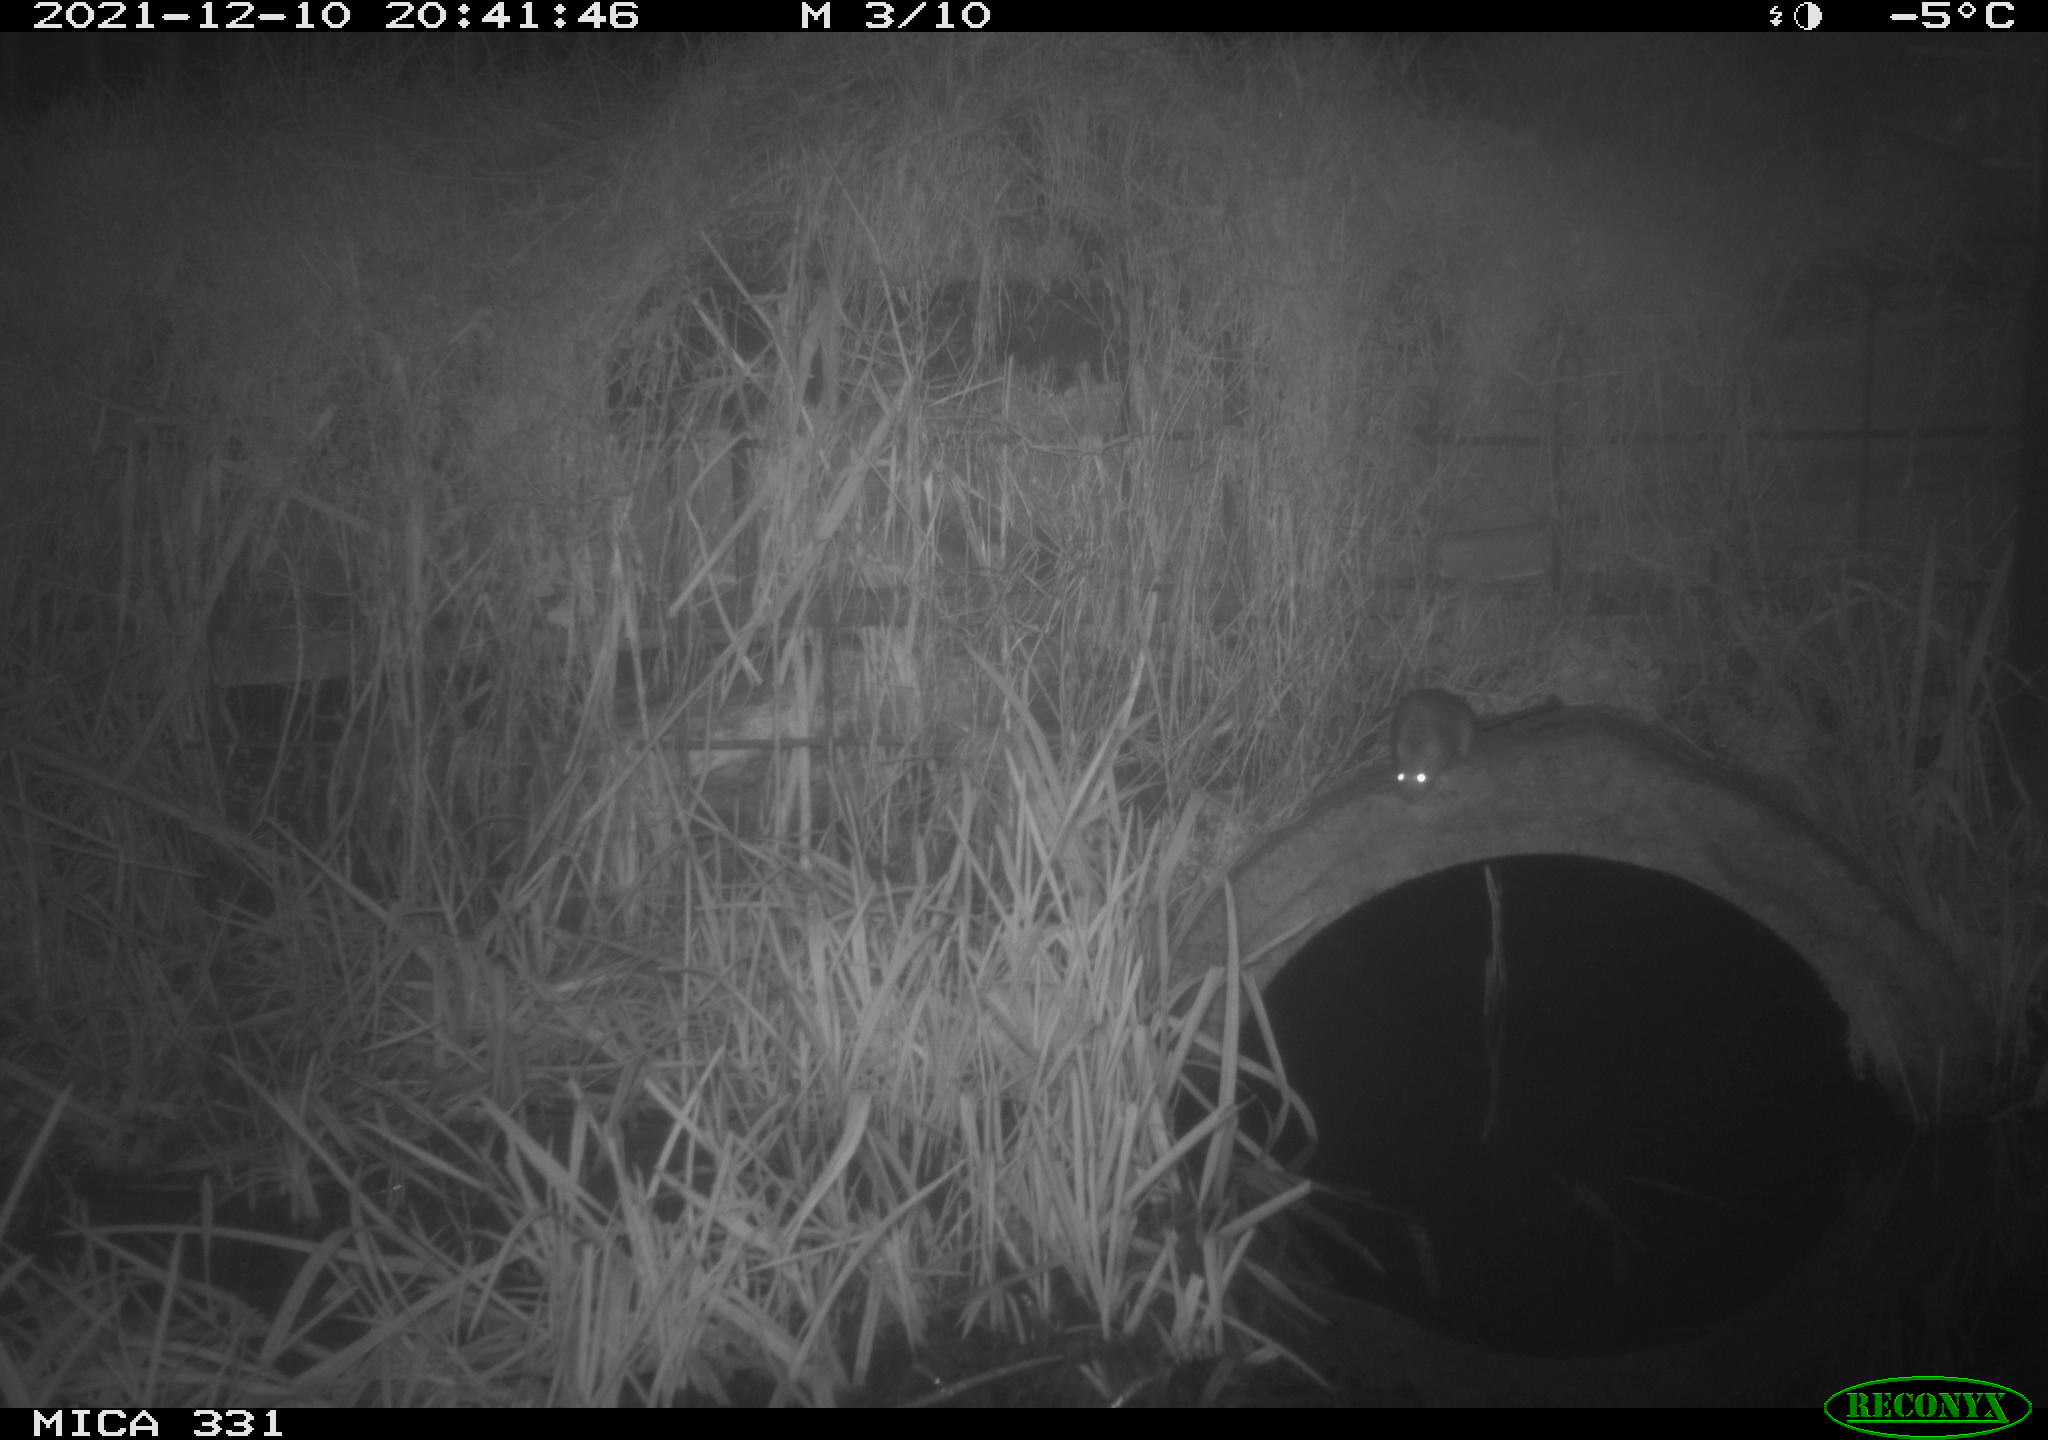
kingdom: Animalia
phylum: Chordata
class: Mammalia
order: Rodentia
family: Muridae
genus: Rattus
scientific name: Rattus norvegicus
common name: Brown rat
